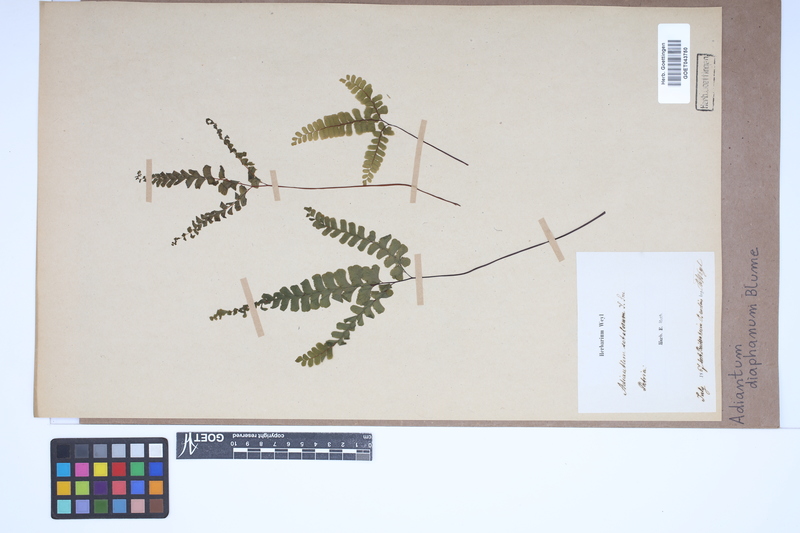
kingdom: Plantae
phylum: Tracheophyta
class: Polypodiopsida
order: Polypodiales
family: Pteridaceae
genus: Adiantum
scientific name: Adiantum diaphanum
